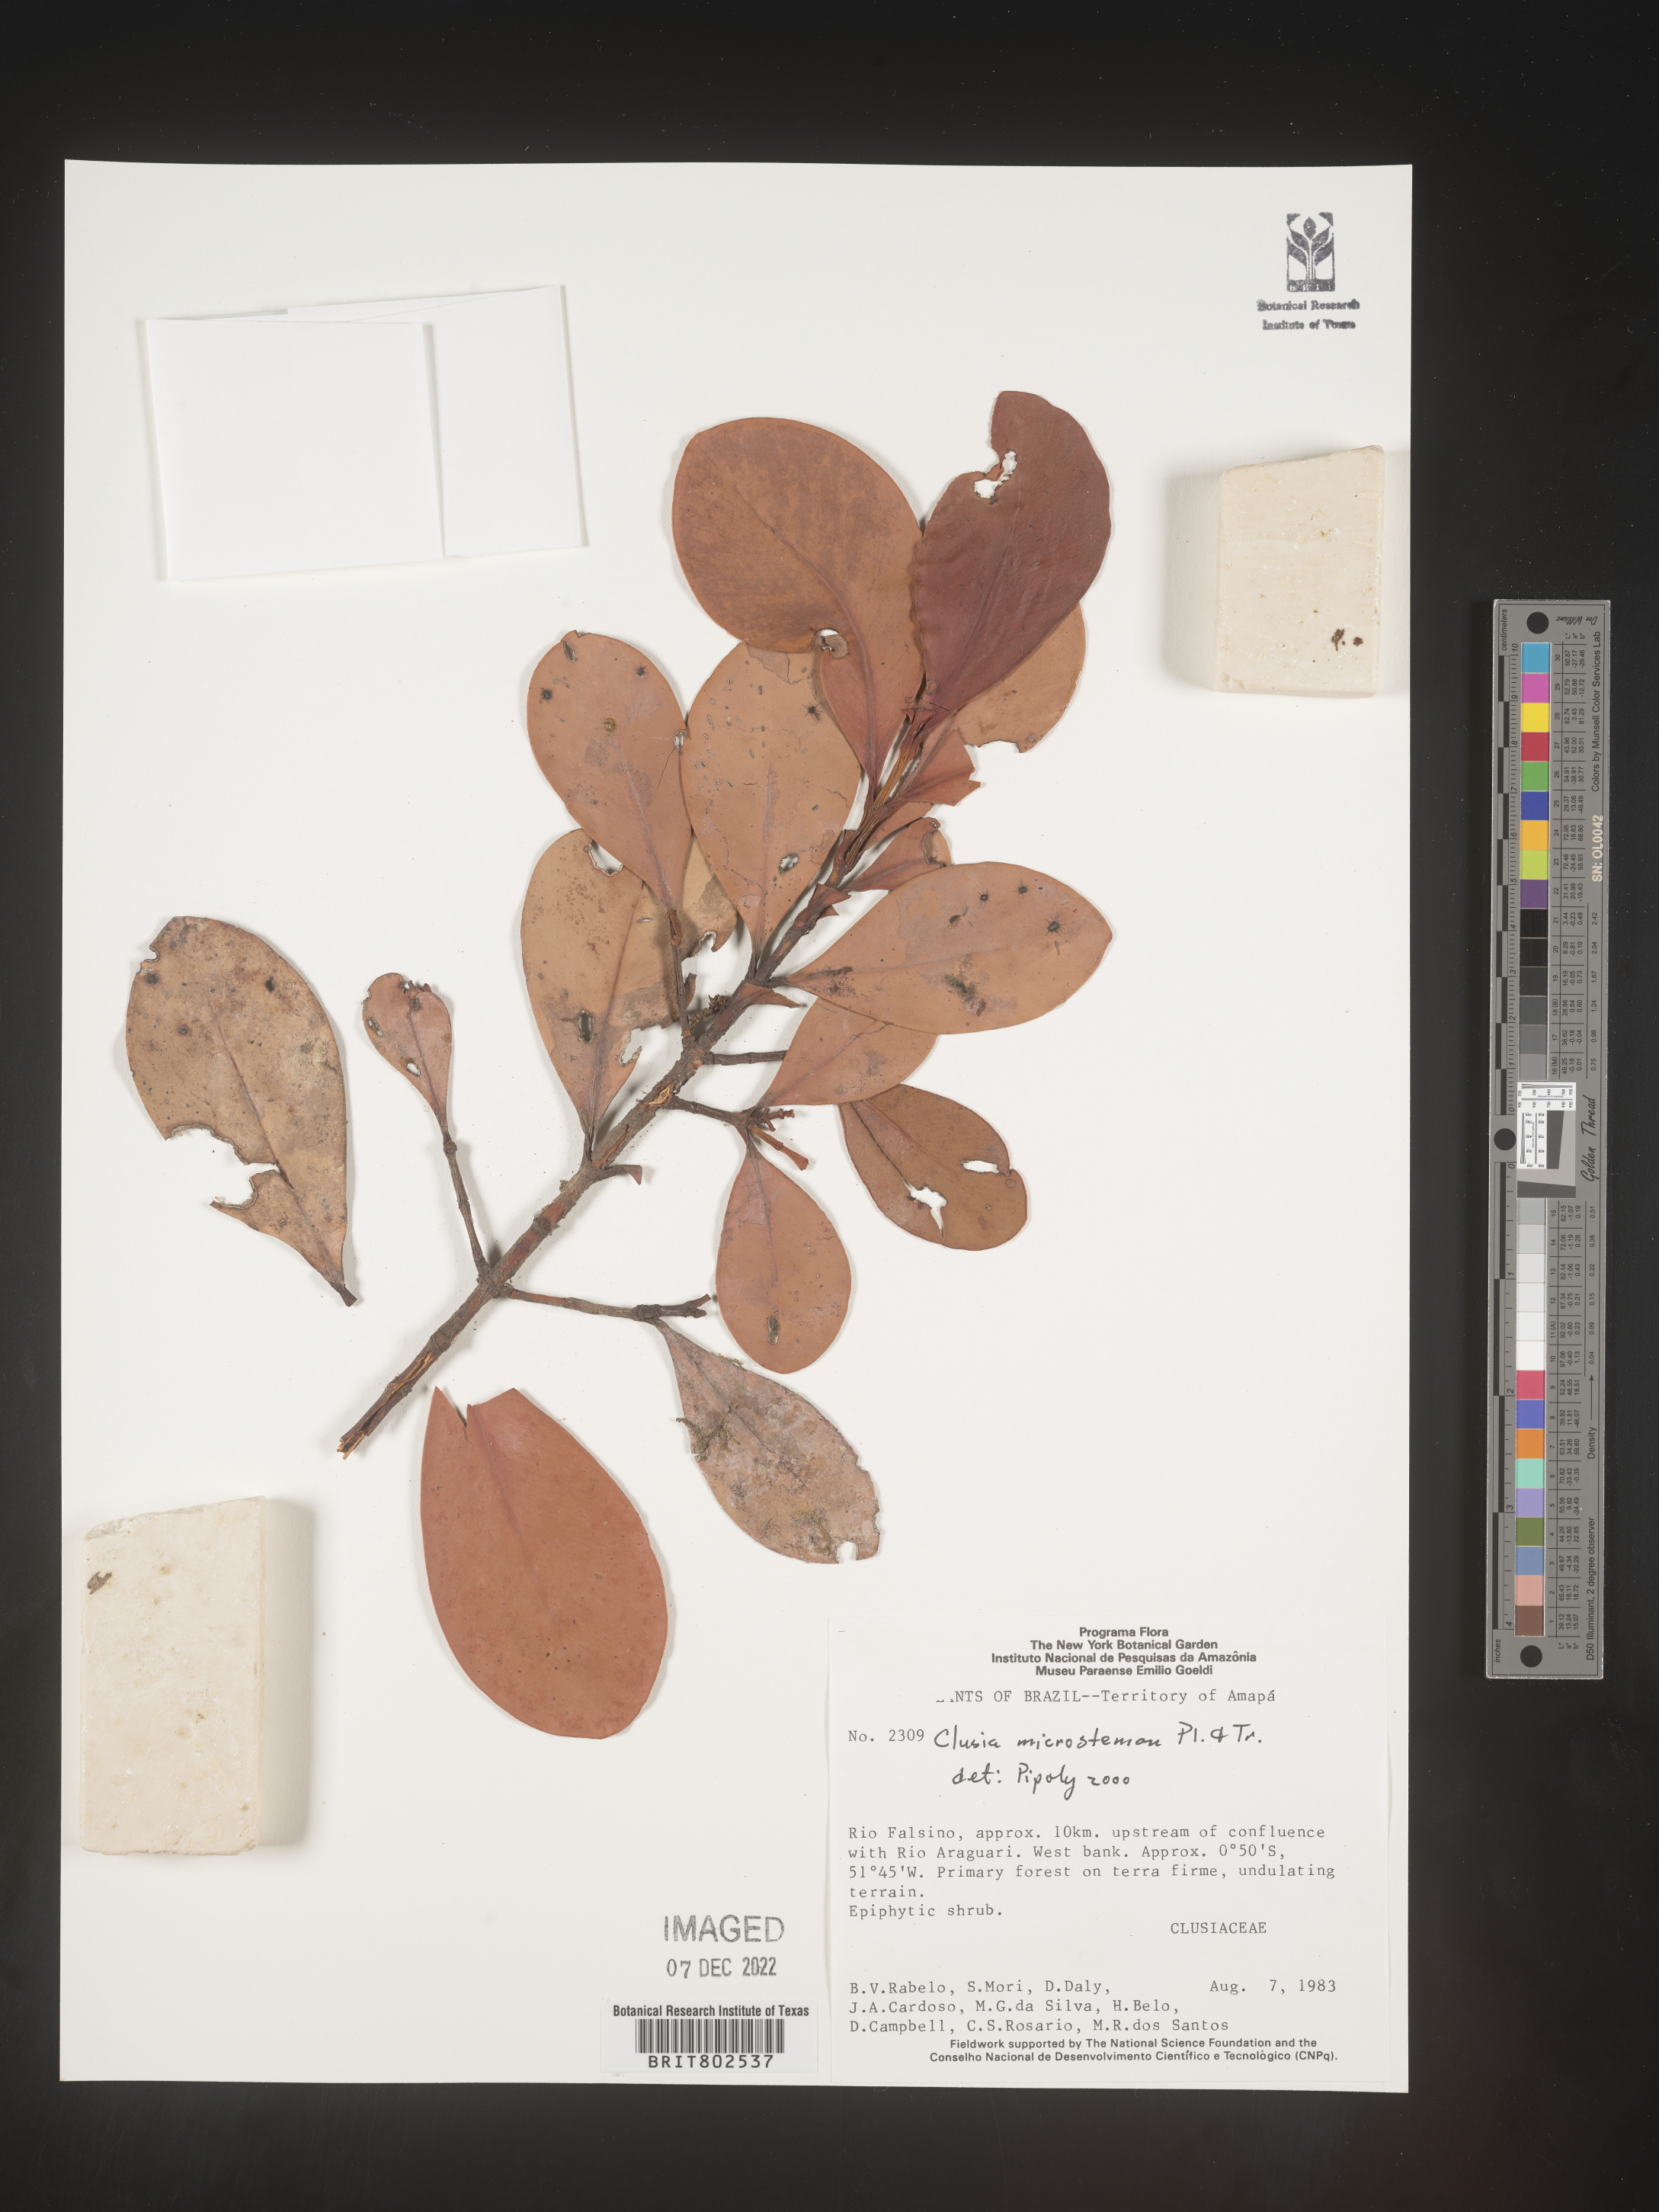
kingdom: Plantae
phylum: Tracheophyta
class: Magnoliopsida
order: Malpighiales
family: Clusiaceae
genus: Clusia
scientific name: Clusia microstemon
